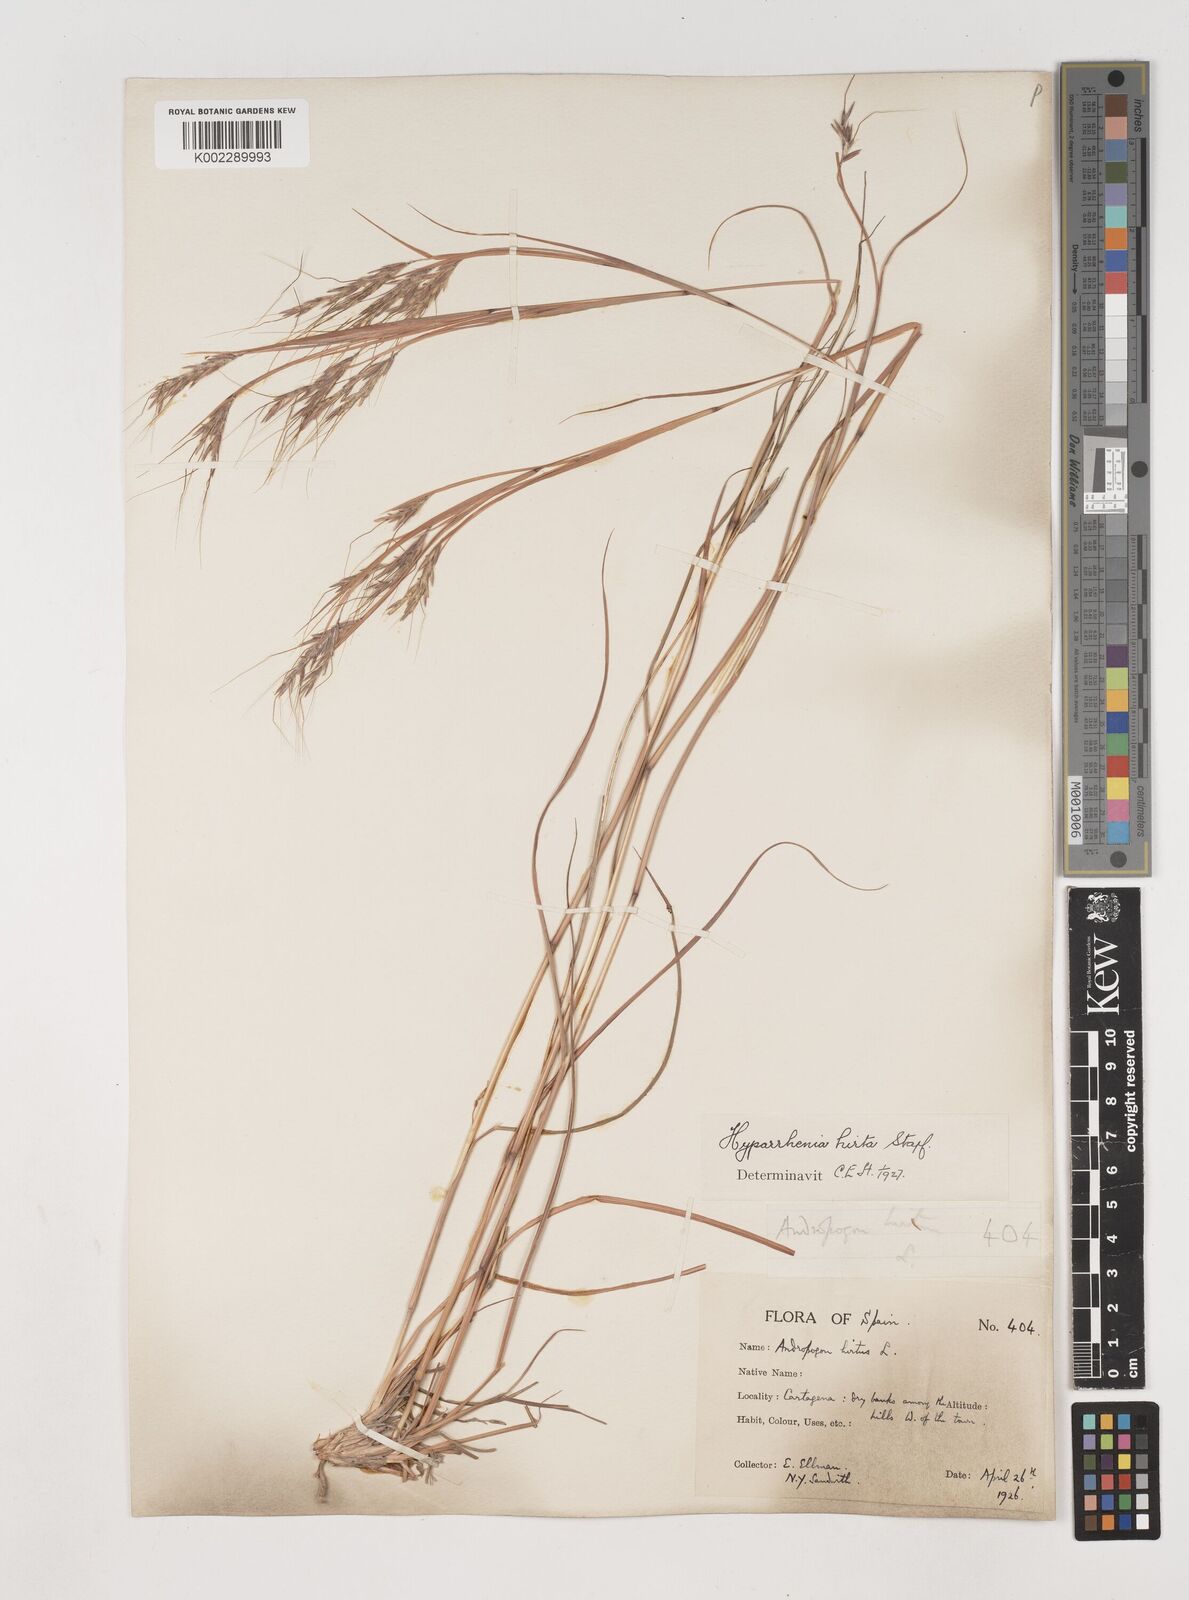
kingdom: Plantae
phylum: Tracheophyta
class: Liliopsida
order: Poales
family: Poaceae
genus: Hyparrhenia
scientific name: Hyparrhenia hirta
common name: Thatching grass
